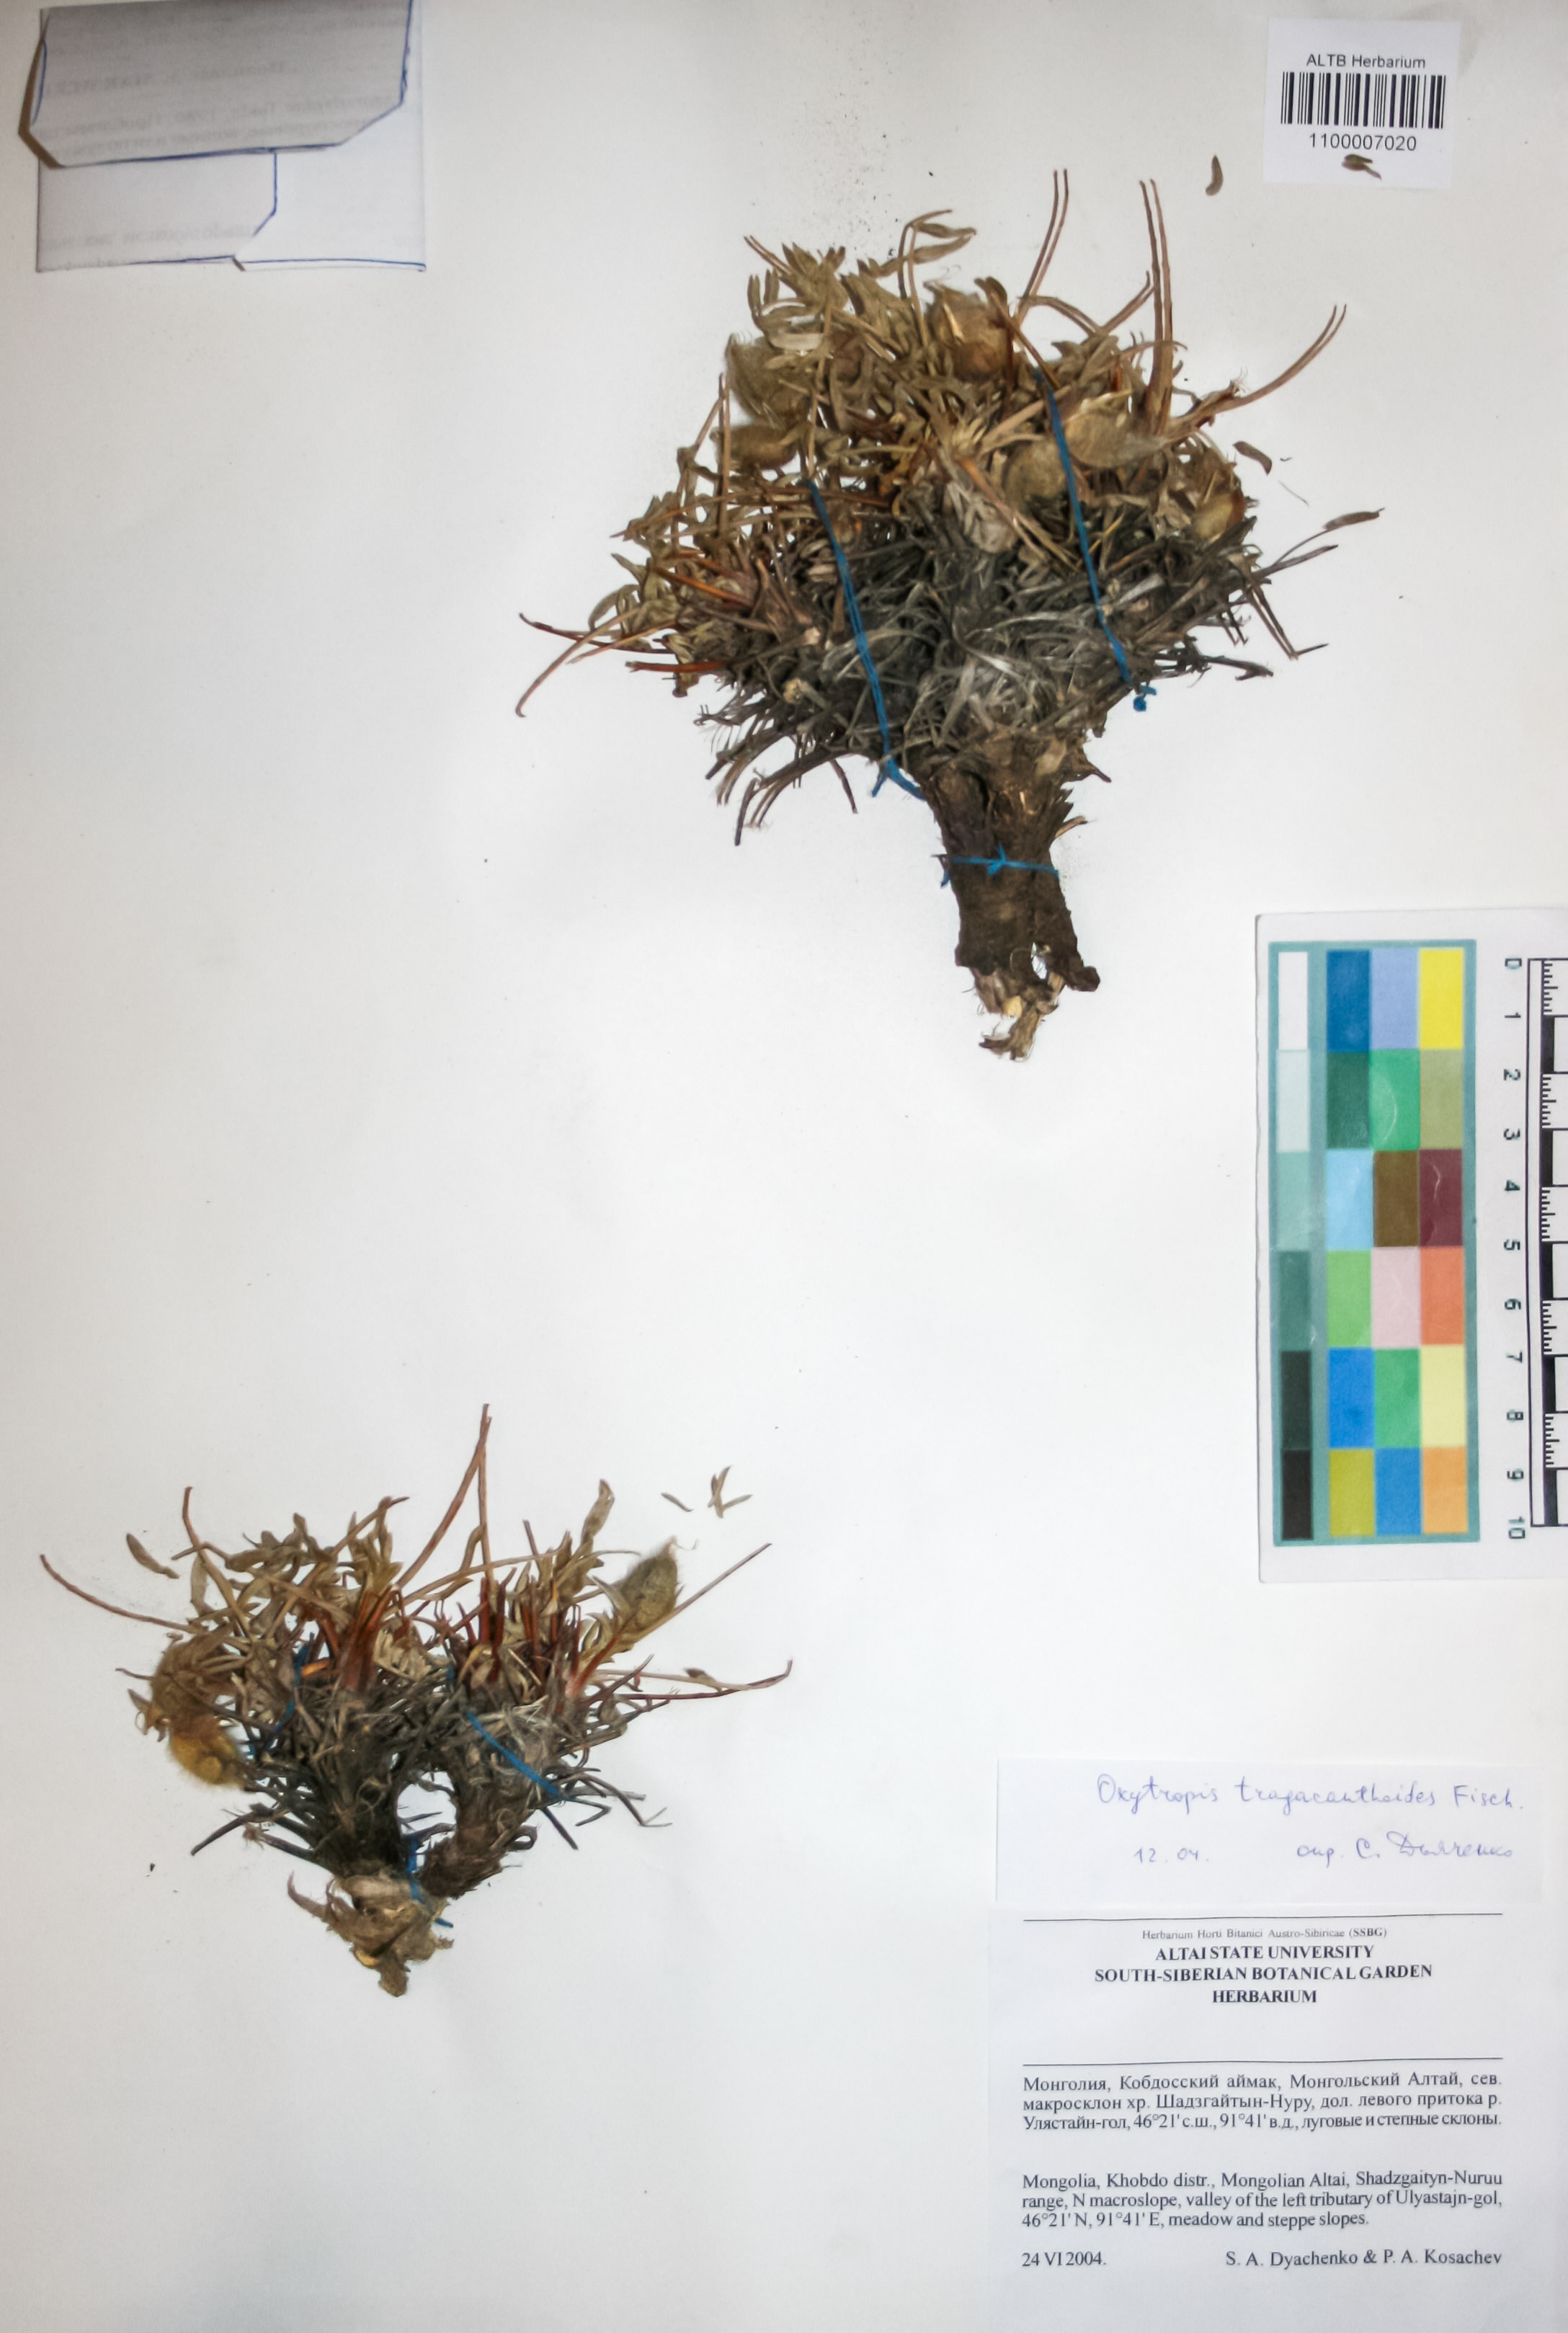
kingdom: Plantae
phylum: Tracheophyta
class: Magnoliopsida
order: Fabales
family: Fabaceae
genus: Oxytropis
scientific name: Oxytropis tragacanthoides
